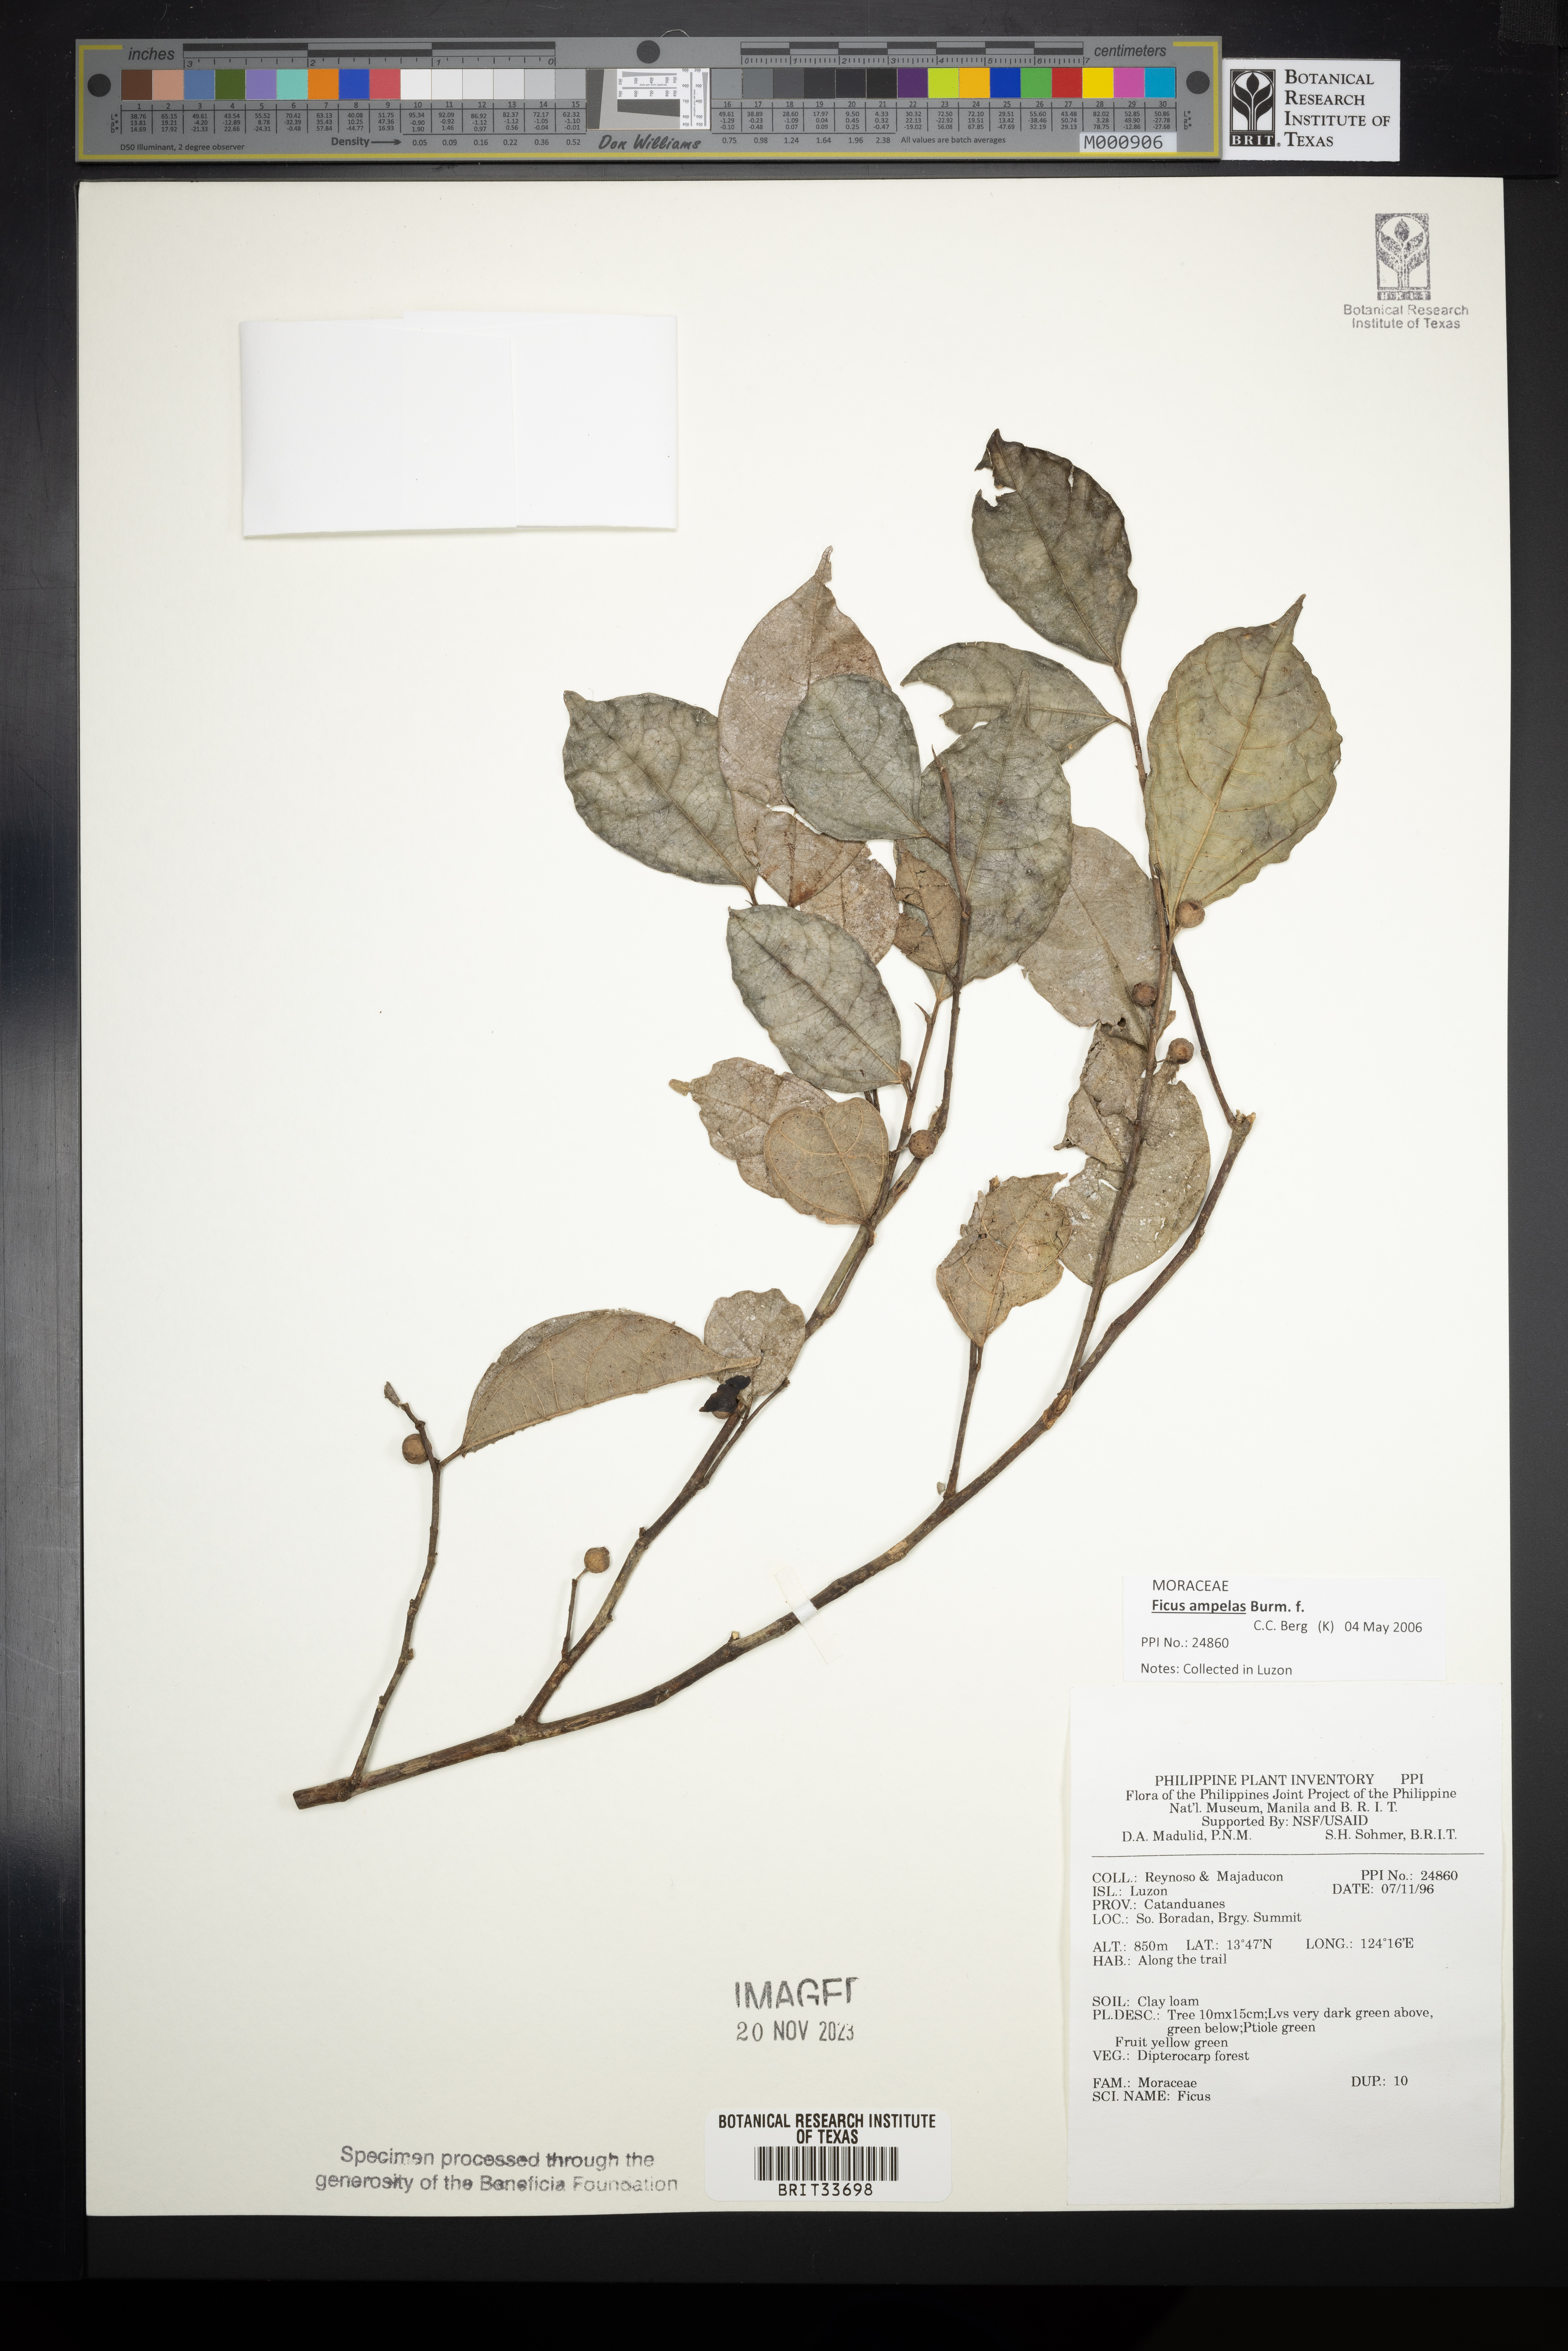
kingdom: Plantae
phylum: Tracheophyta
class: Magnoliopsida
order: Rosales
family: Moraceae
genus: Ficus
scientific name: Ficus
